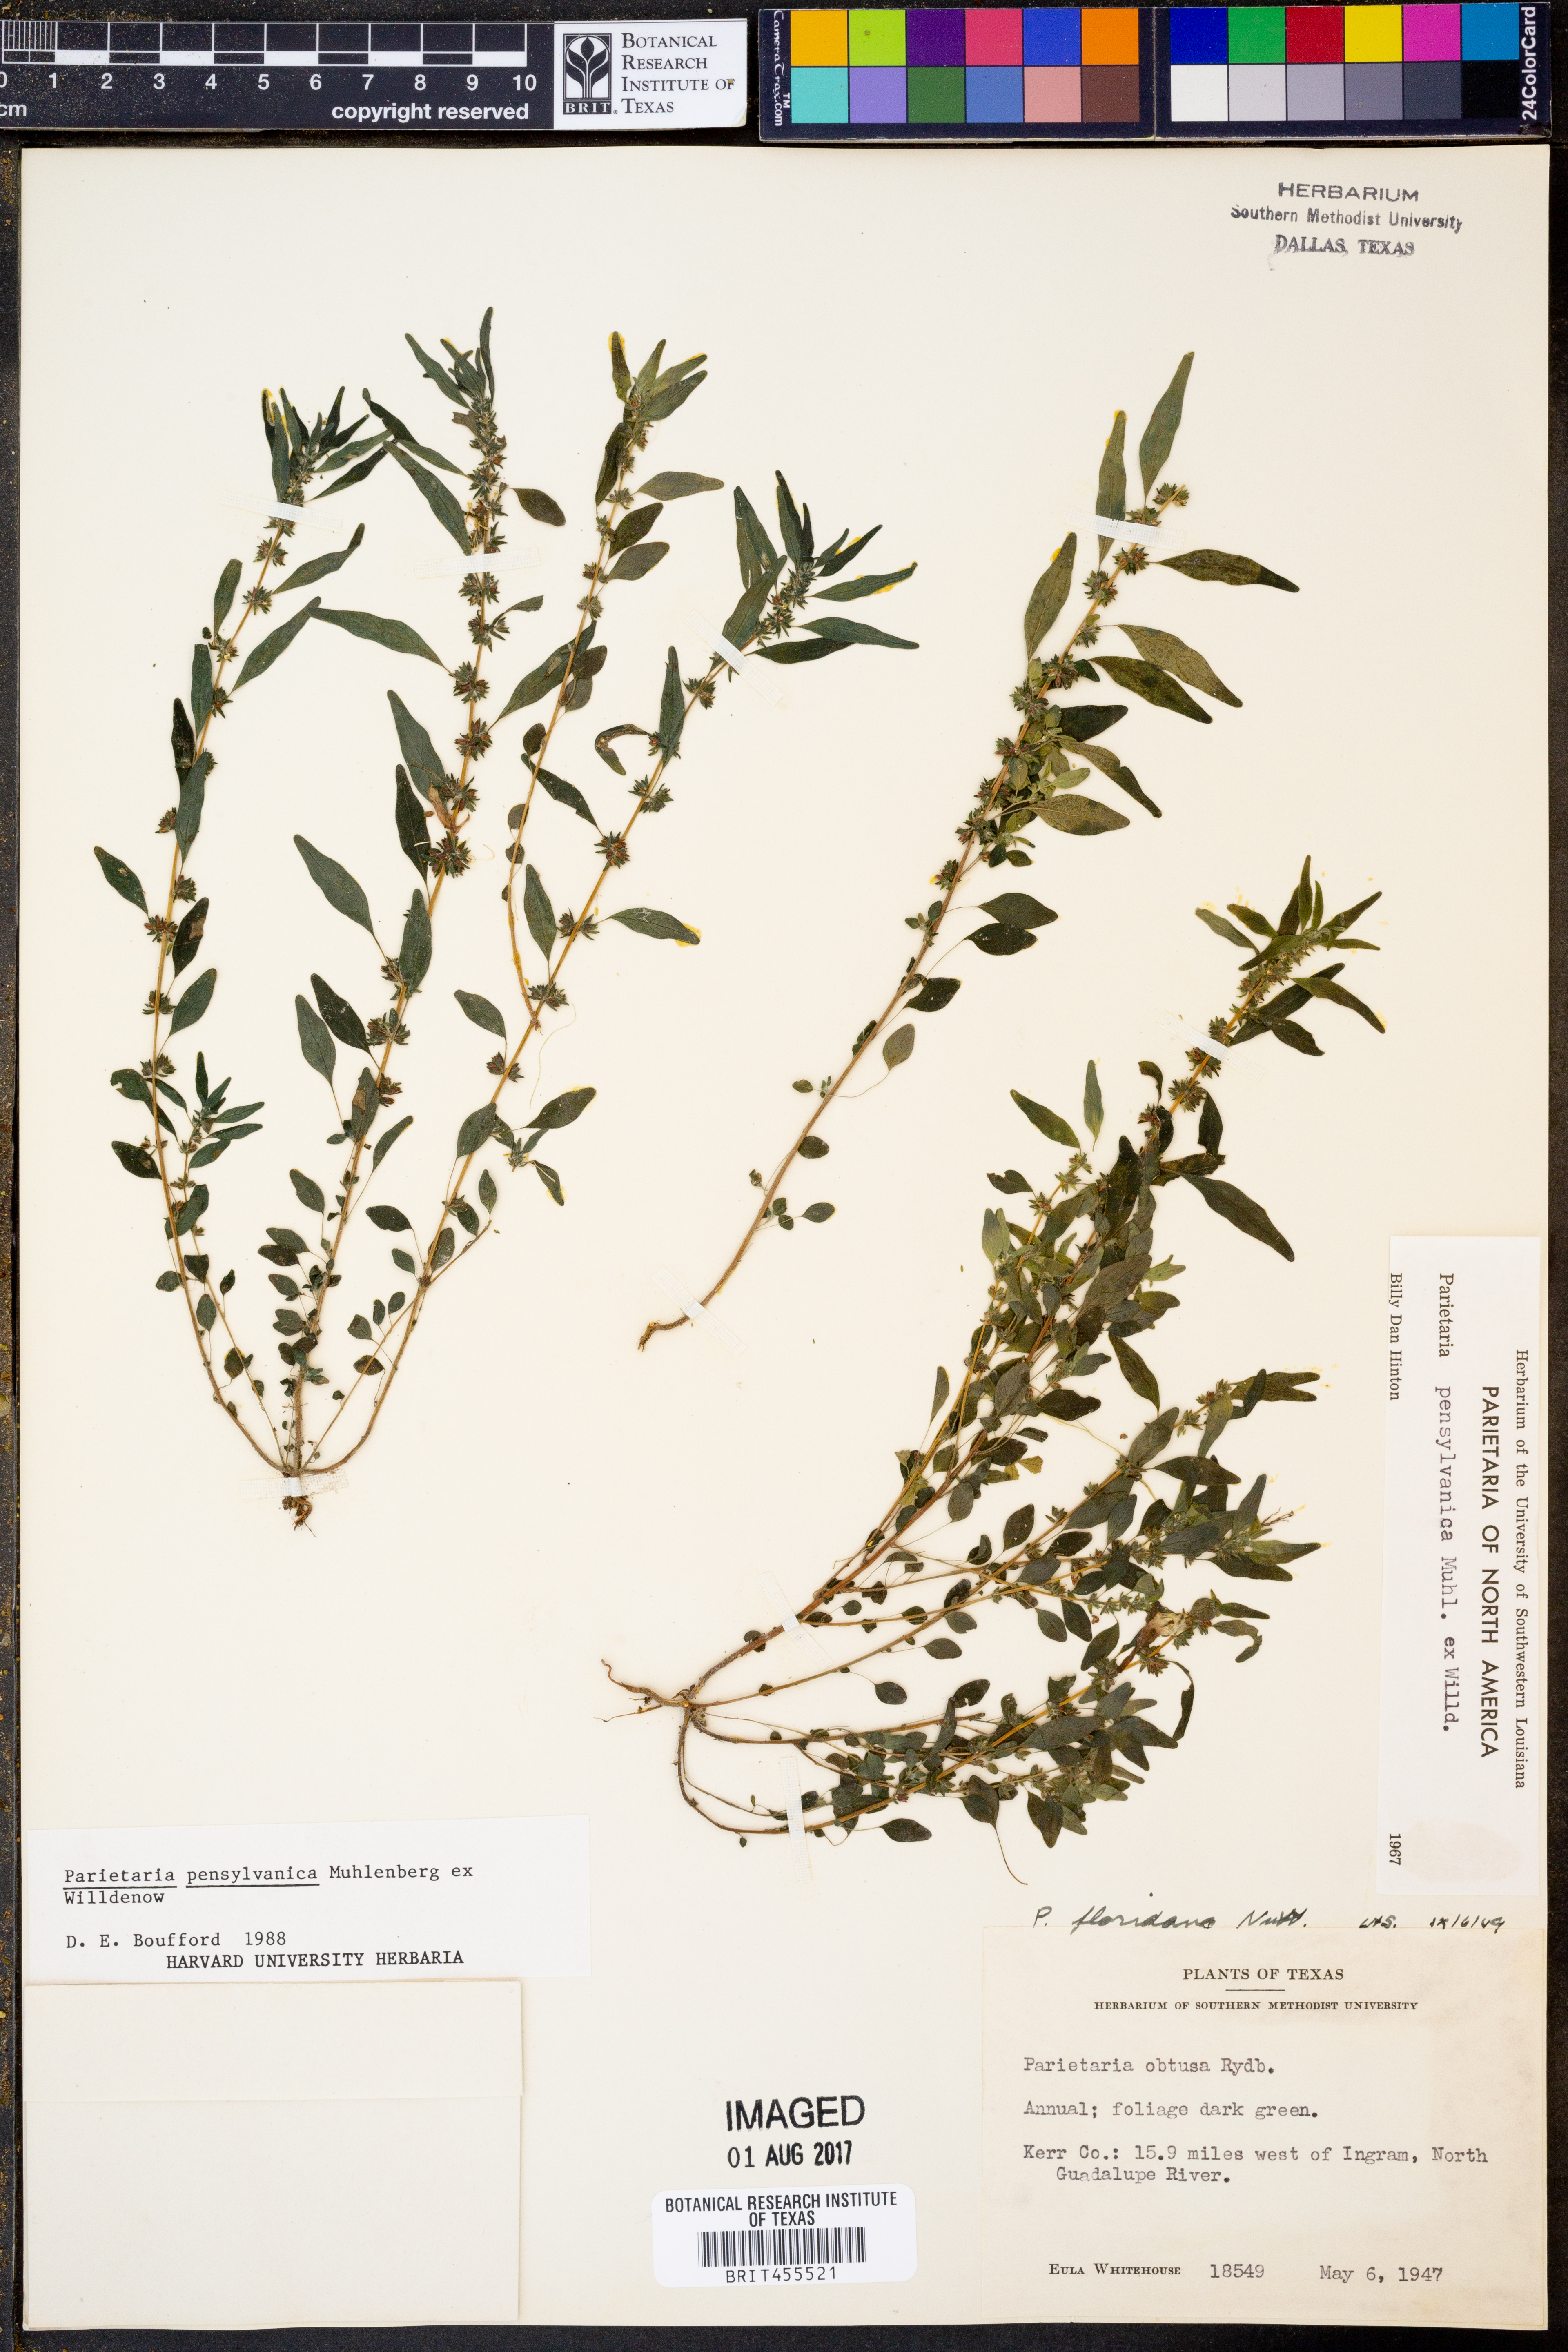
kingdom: Plantae
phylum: Tracheophyta
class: Magnoliopsida
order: Rosales
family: Urticaceae
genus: Parietaria
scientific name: Parietaria pensylvanica
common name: Pennsylvania pellitory
